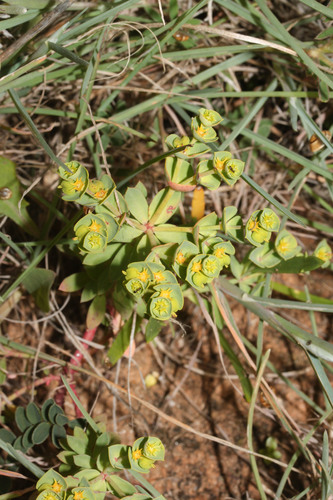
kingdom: Plantae
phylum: Tracheophyta
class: Magnoliopsida
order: Malpighiales
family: Euphorbiaceae
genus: Euphorbia
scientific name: Euphorbia portlandica
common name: Portland spurge
